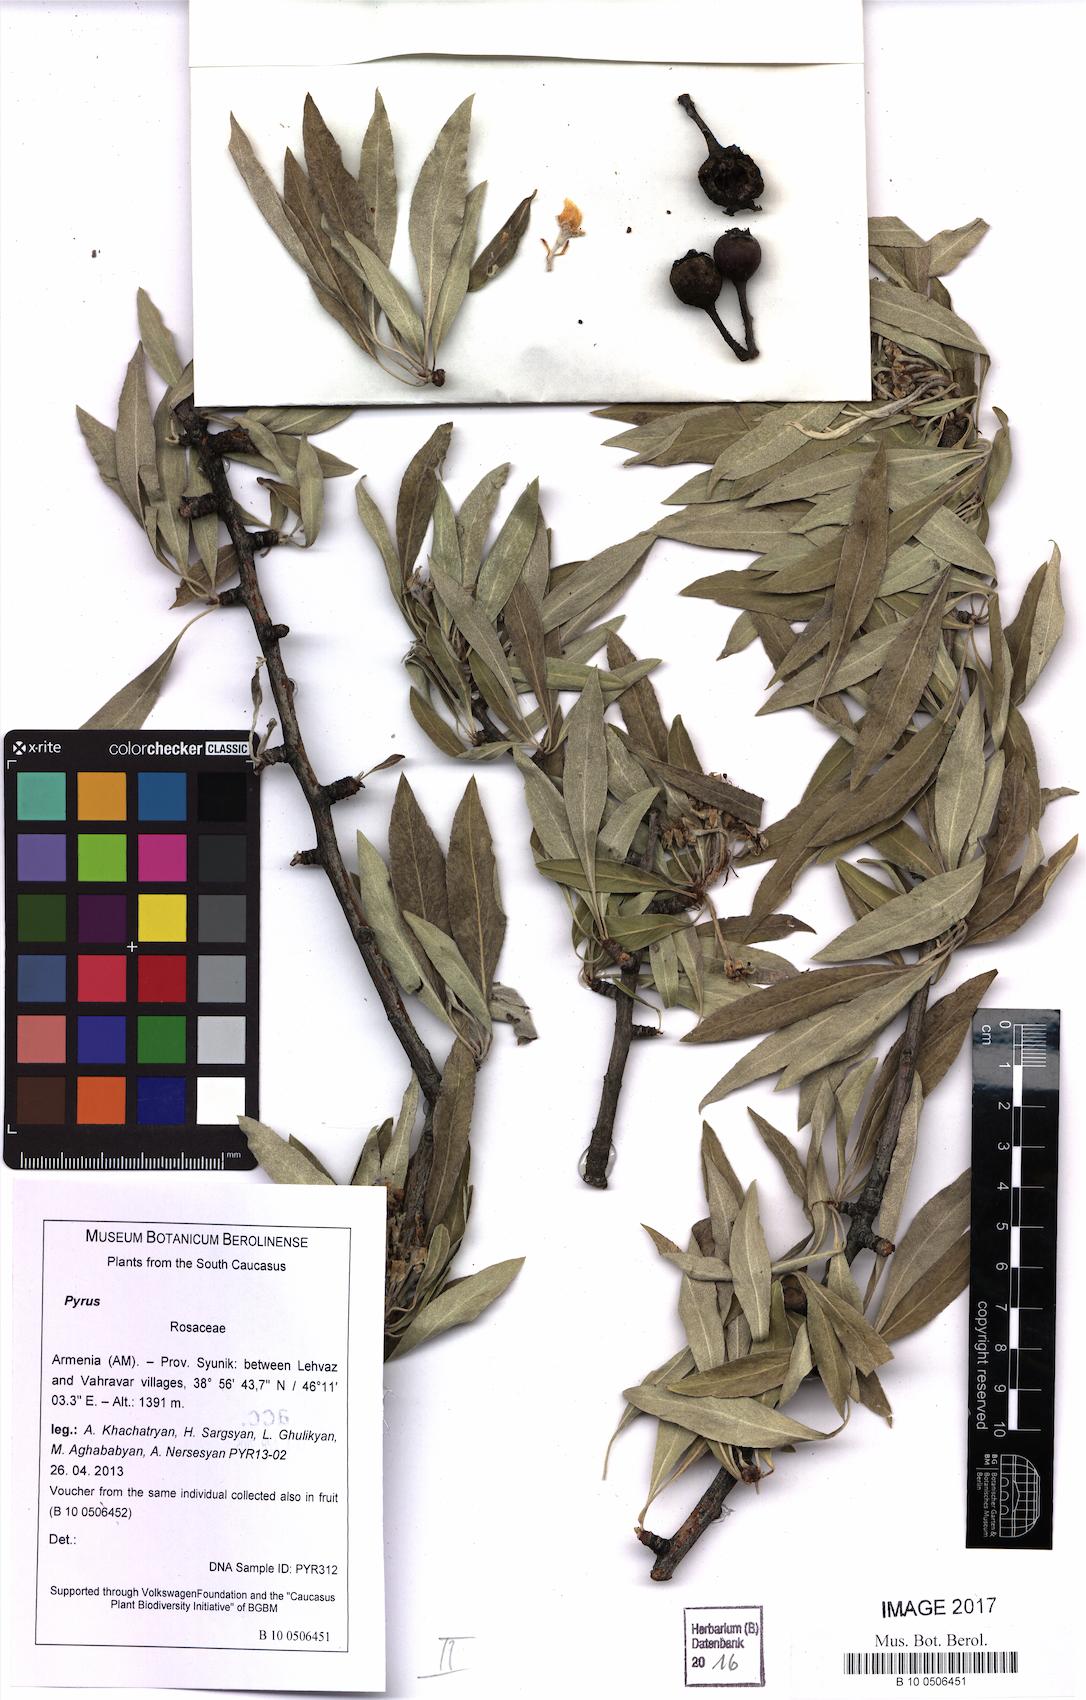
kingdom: Plantae
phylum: Tracheophyta
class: Magnoliopsida
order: Rosales
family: Rosaceae
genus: Pyrus
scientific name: Pyrus
